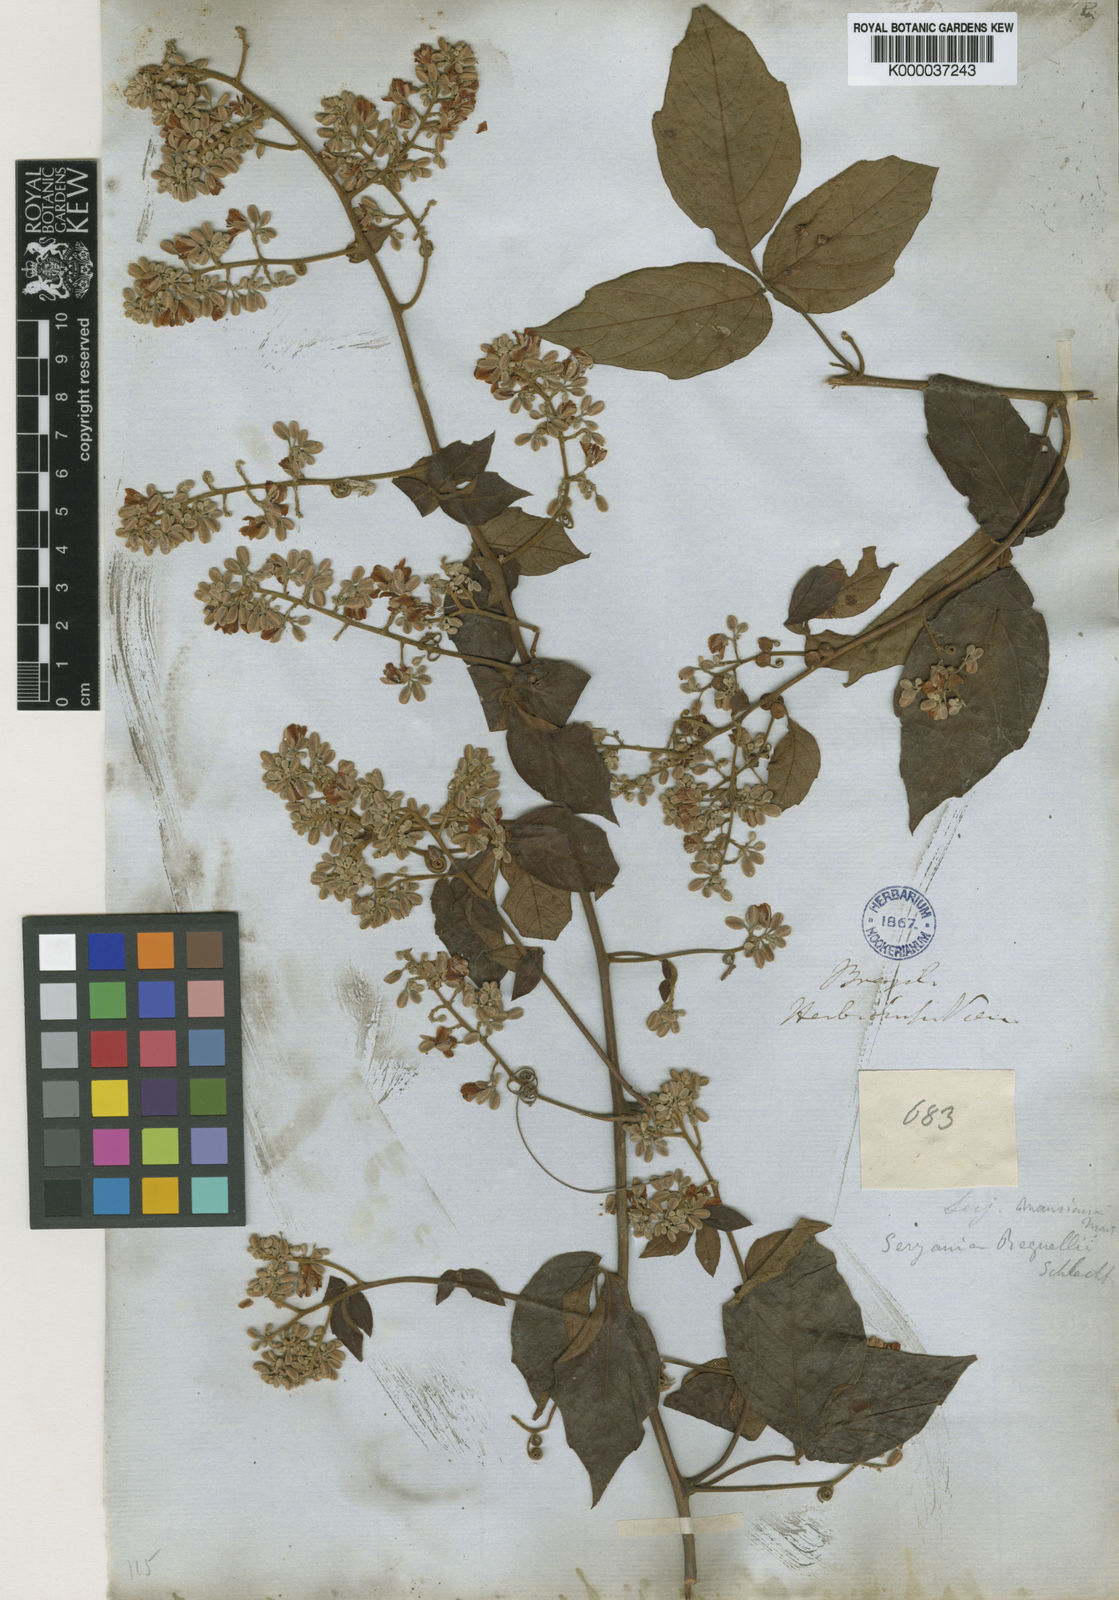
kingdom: Plantae
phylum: Tracheophyta
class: Magnoliopsida
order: Sapindales
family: Sapindaceae
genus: Serjania
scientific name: Serjania mansiana
